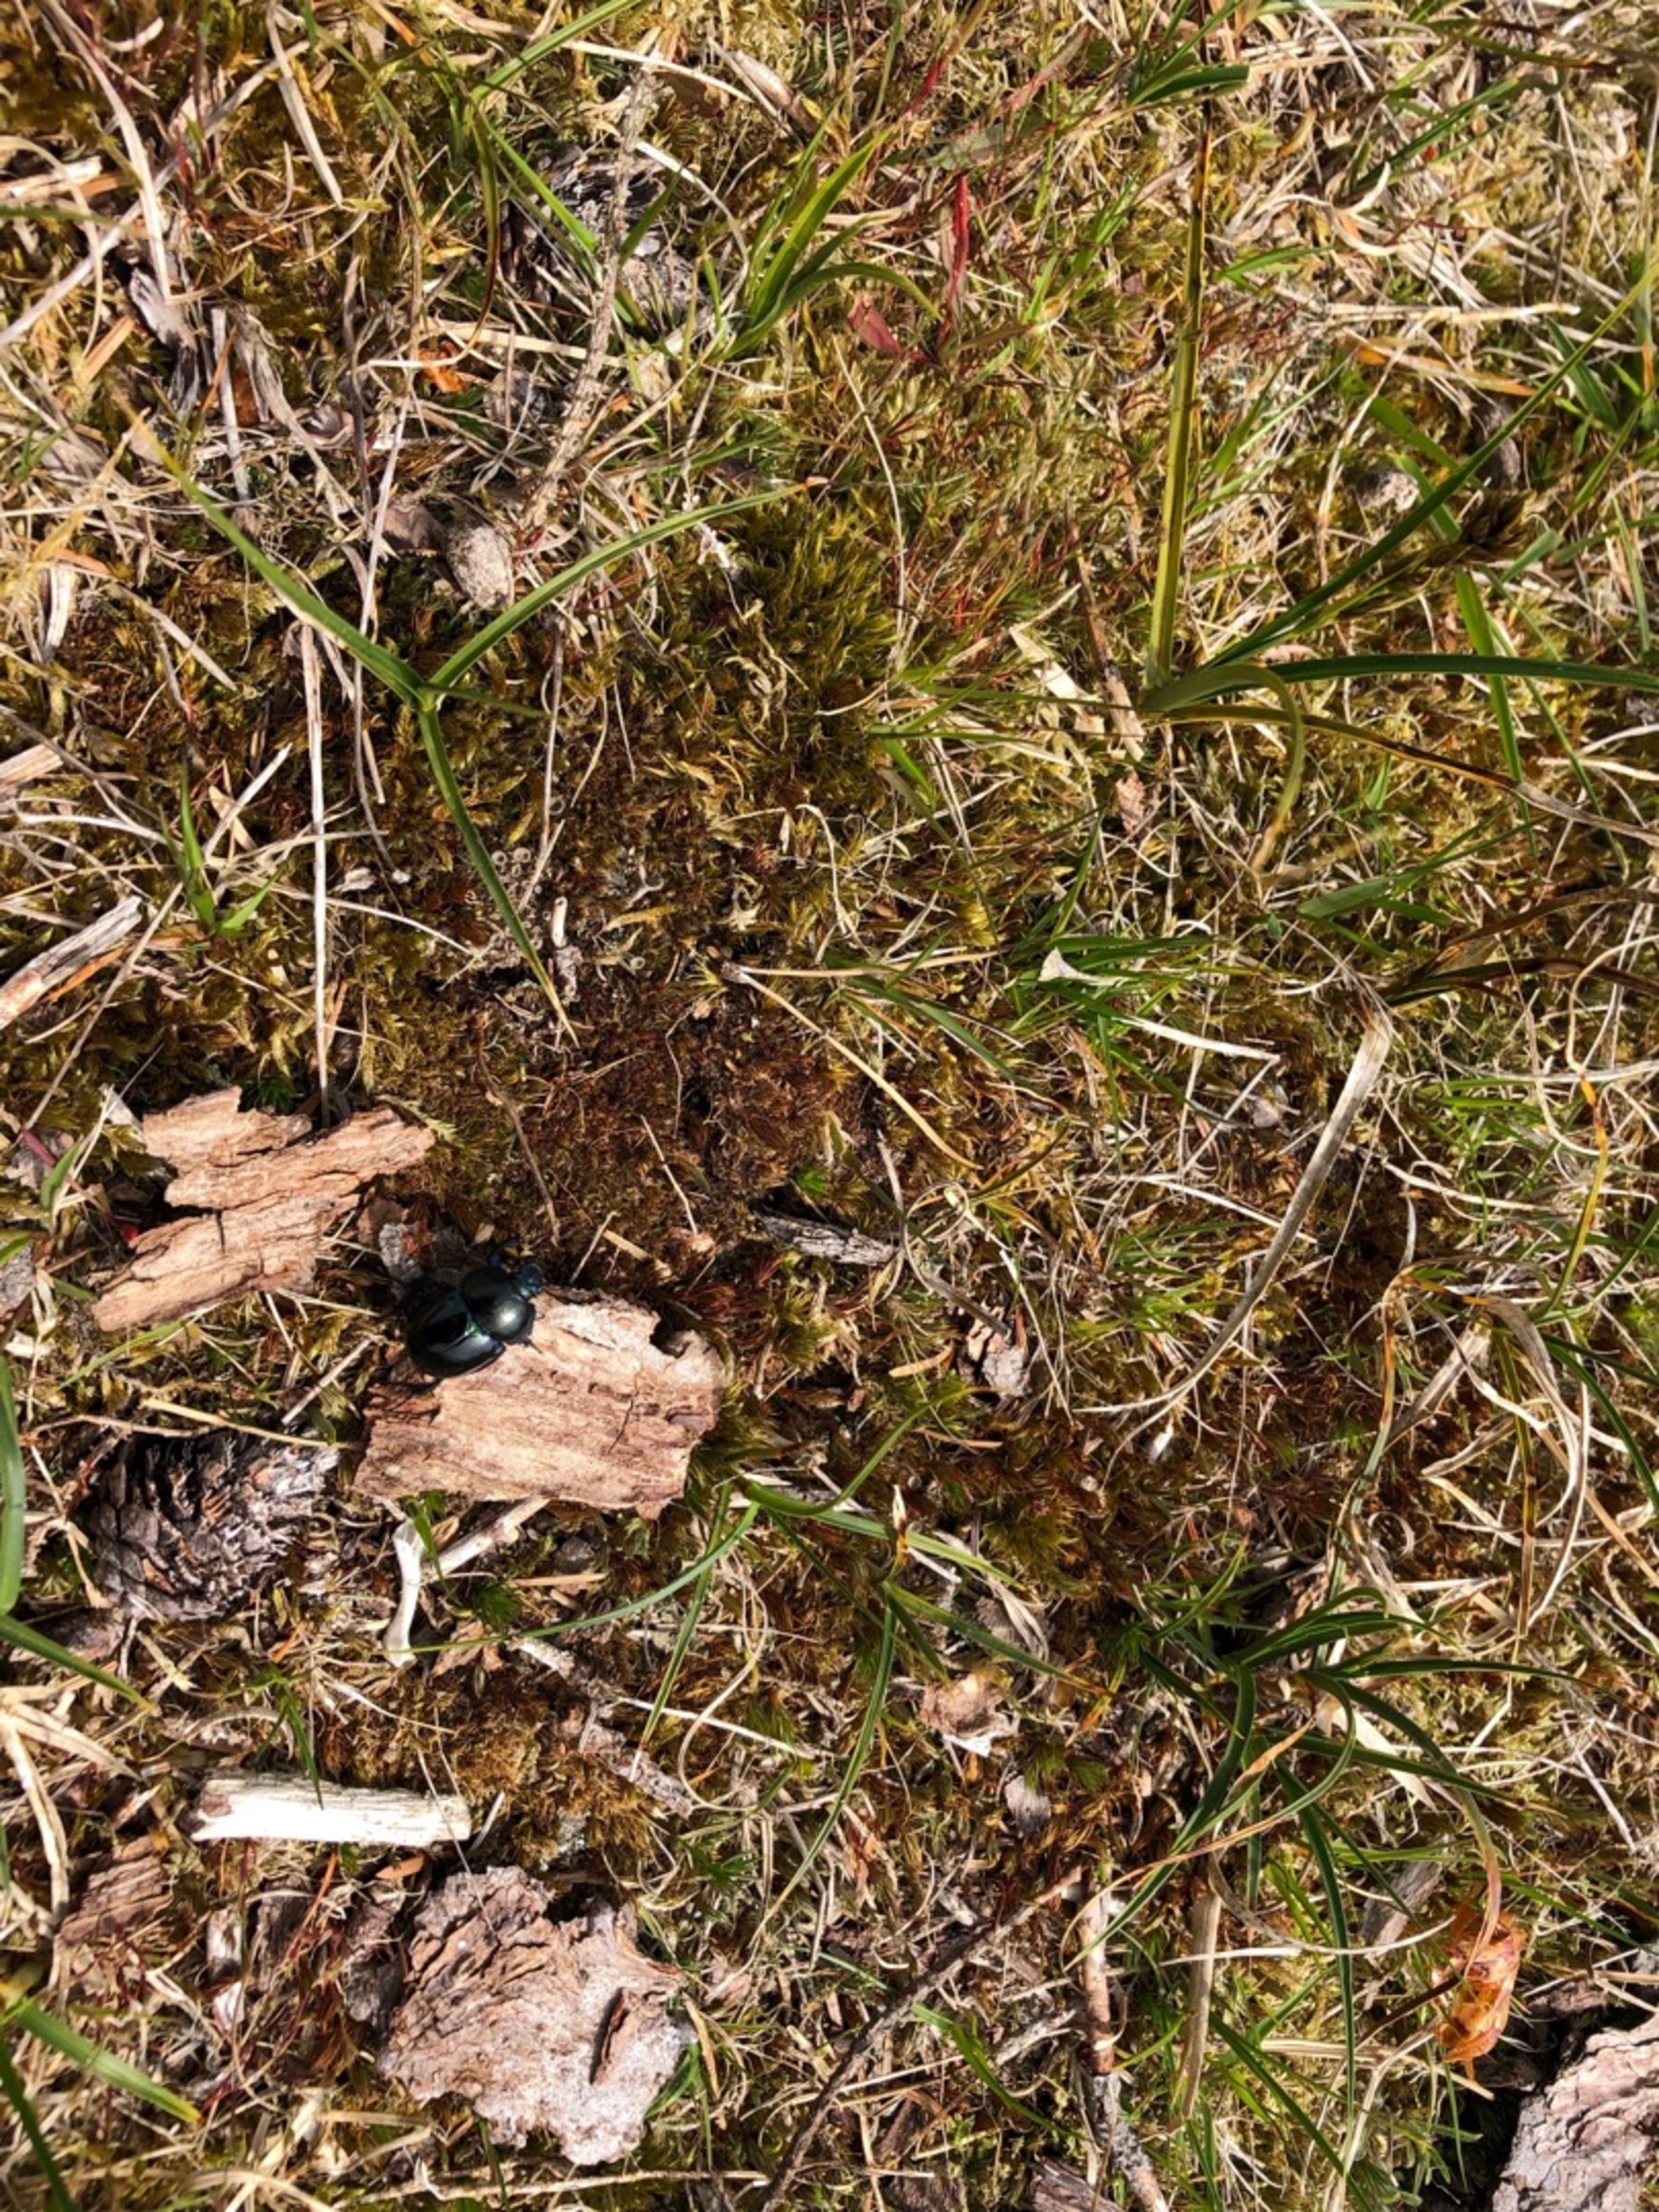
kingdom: Animalia
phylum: Arthropoda
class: Insecta
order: Coleoptera
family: Geotrupidae
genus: Trypocopris
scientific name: Trypocopris vernalis
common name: Glat skarnbasse
